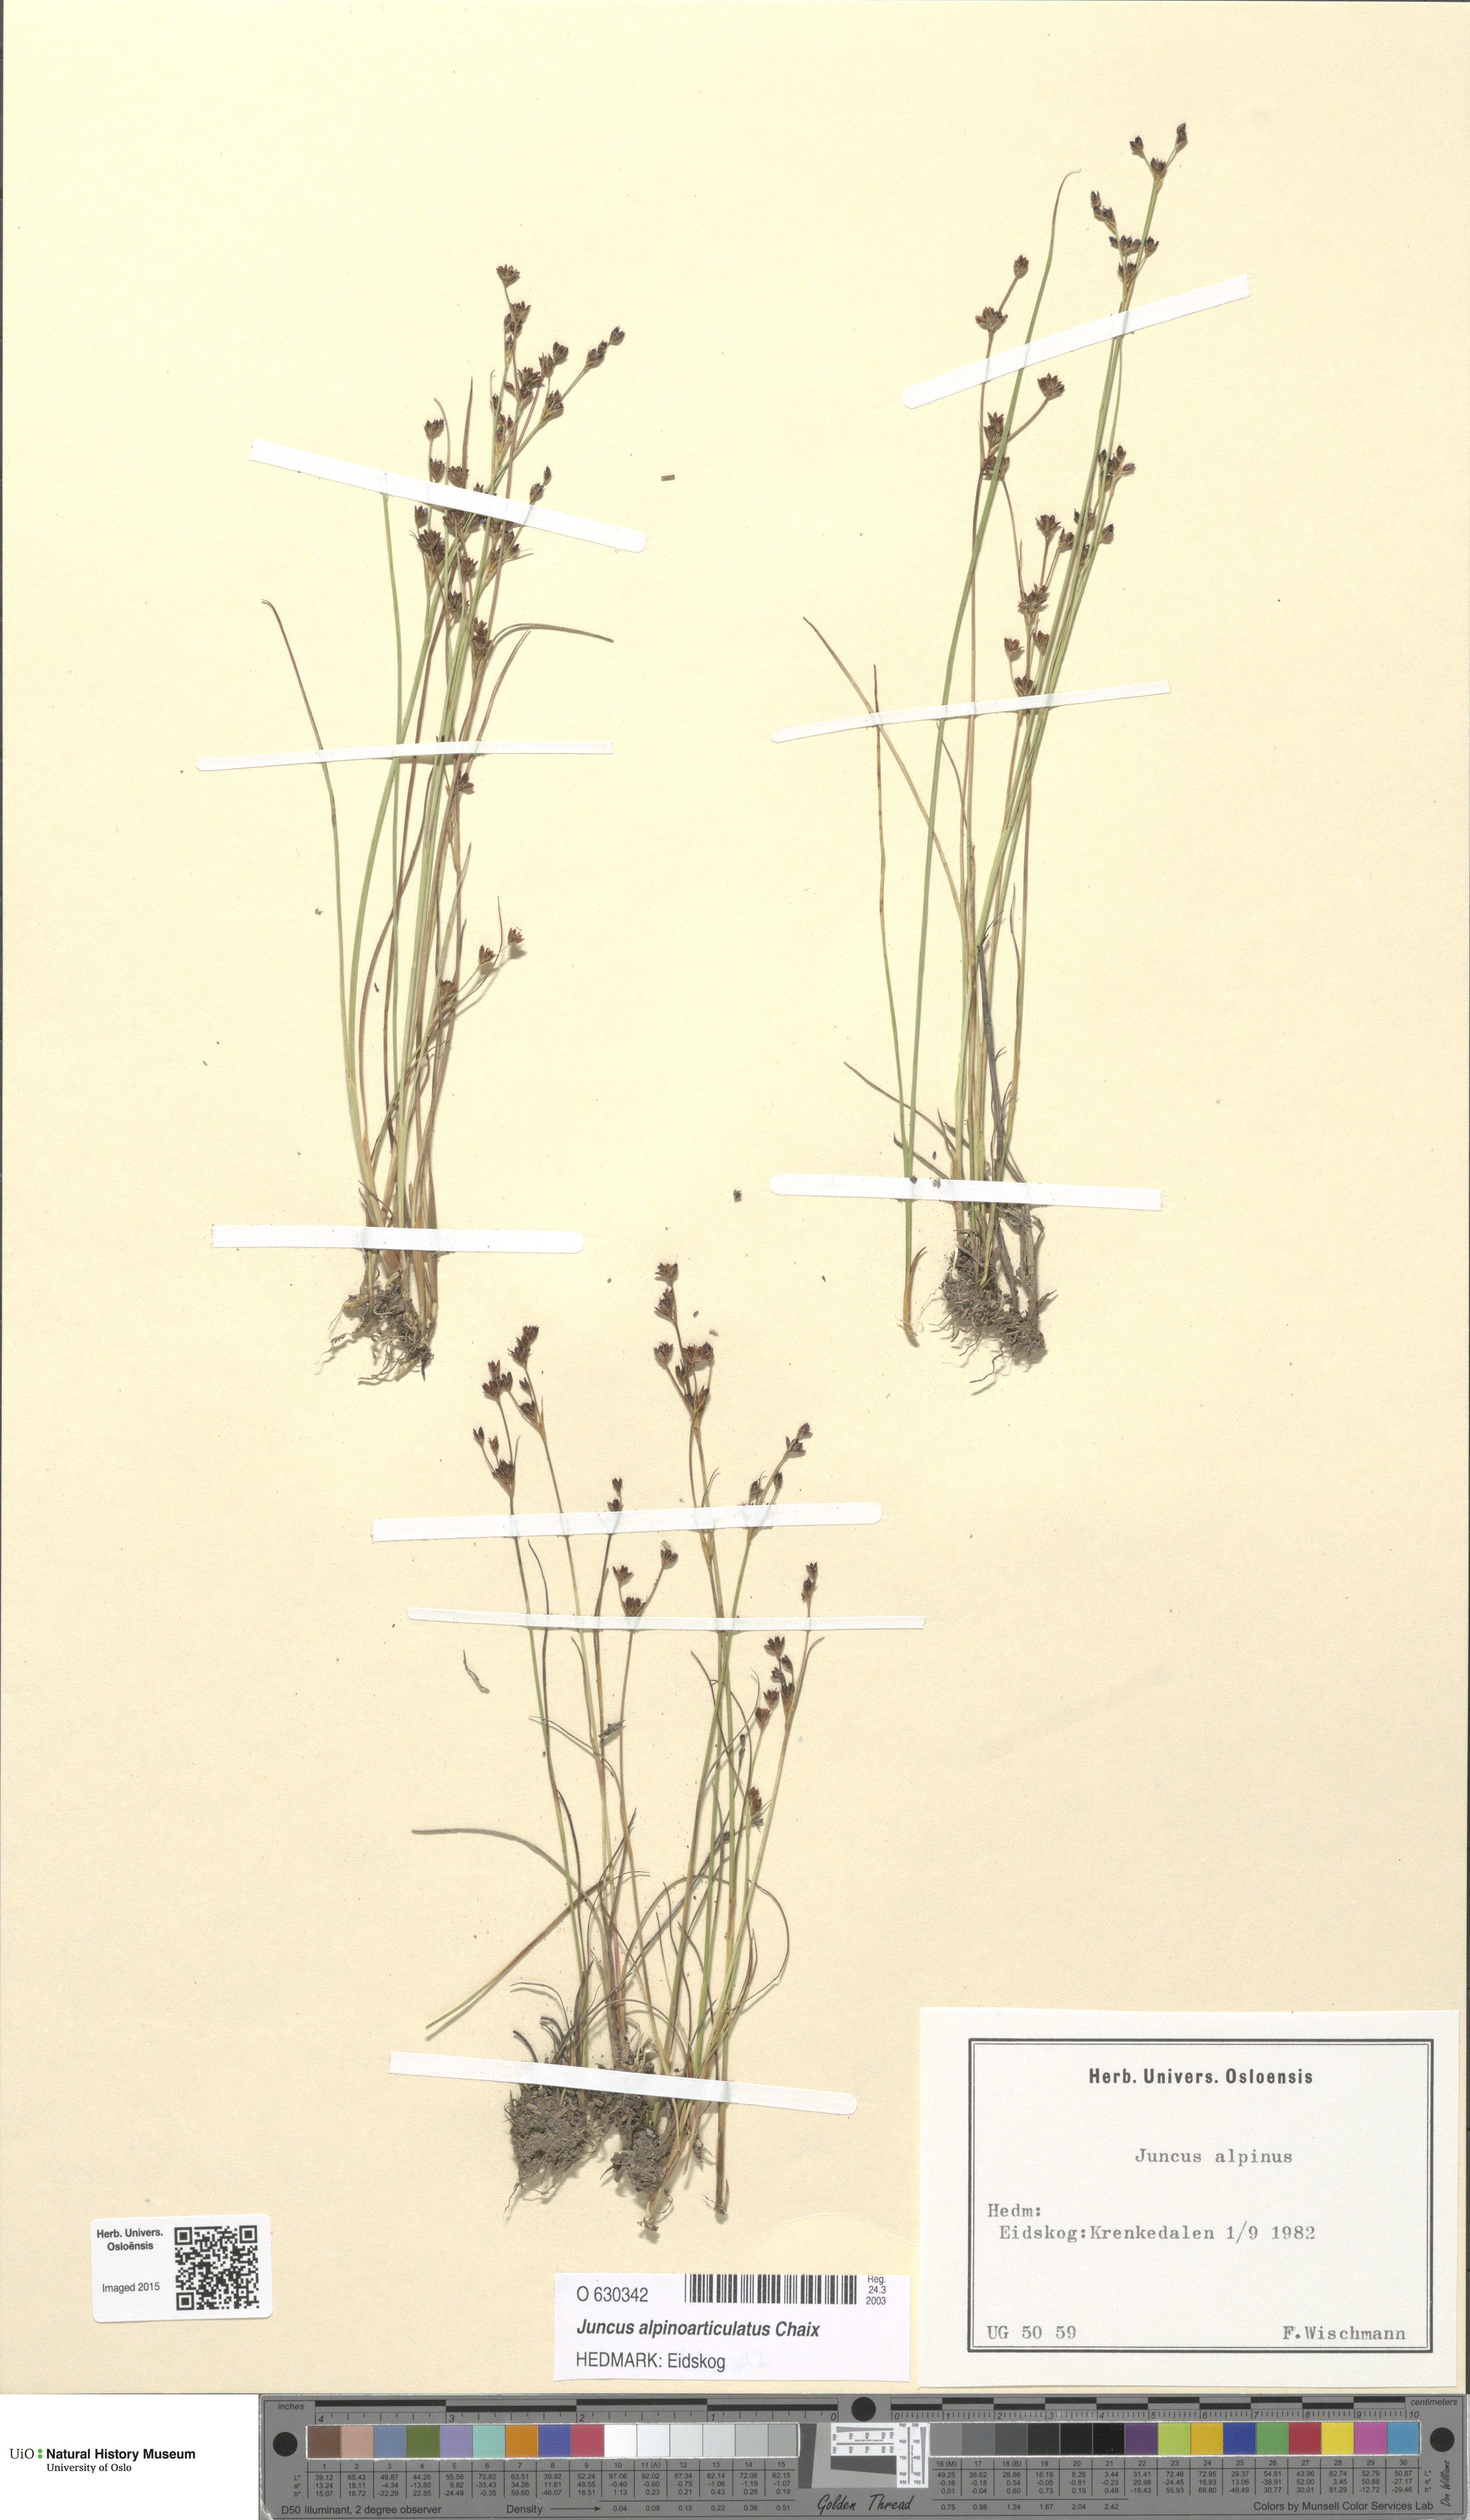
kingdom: Plantae
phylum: Tracheophyta
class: Liliopsida
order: Poales
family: Juncaceae
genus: Juncus
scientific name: Juncus alpinoarticulatus
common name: Alpine rush
